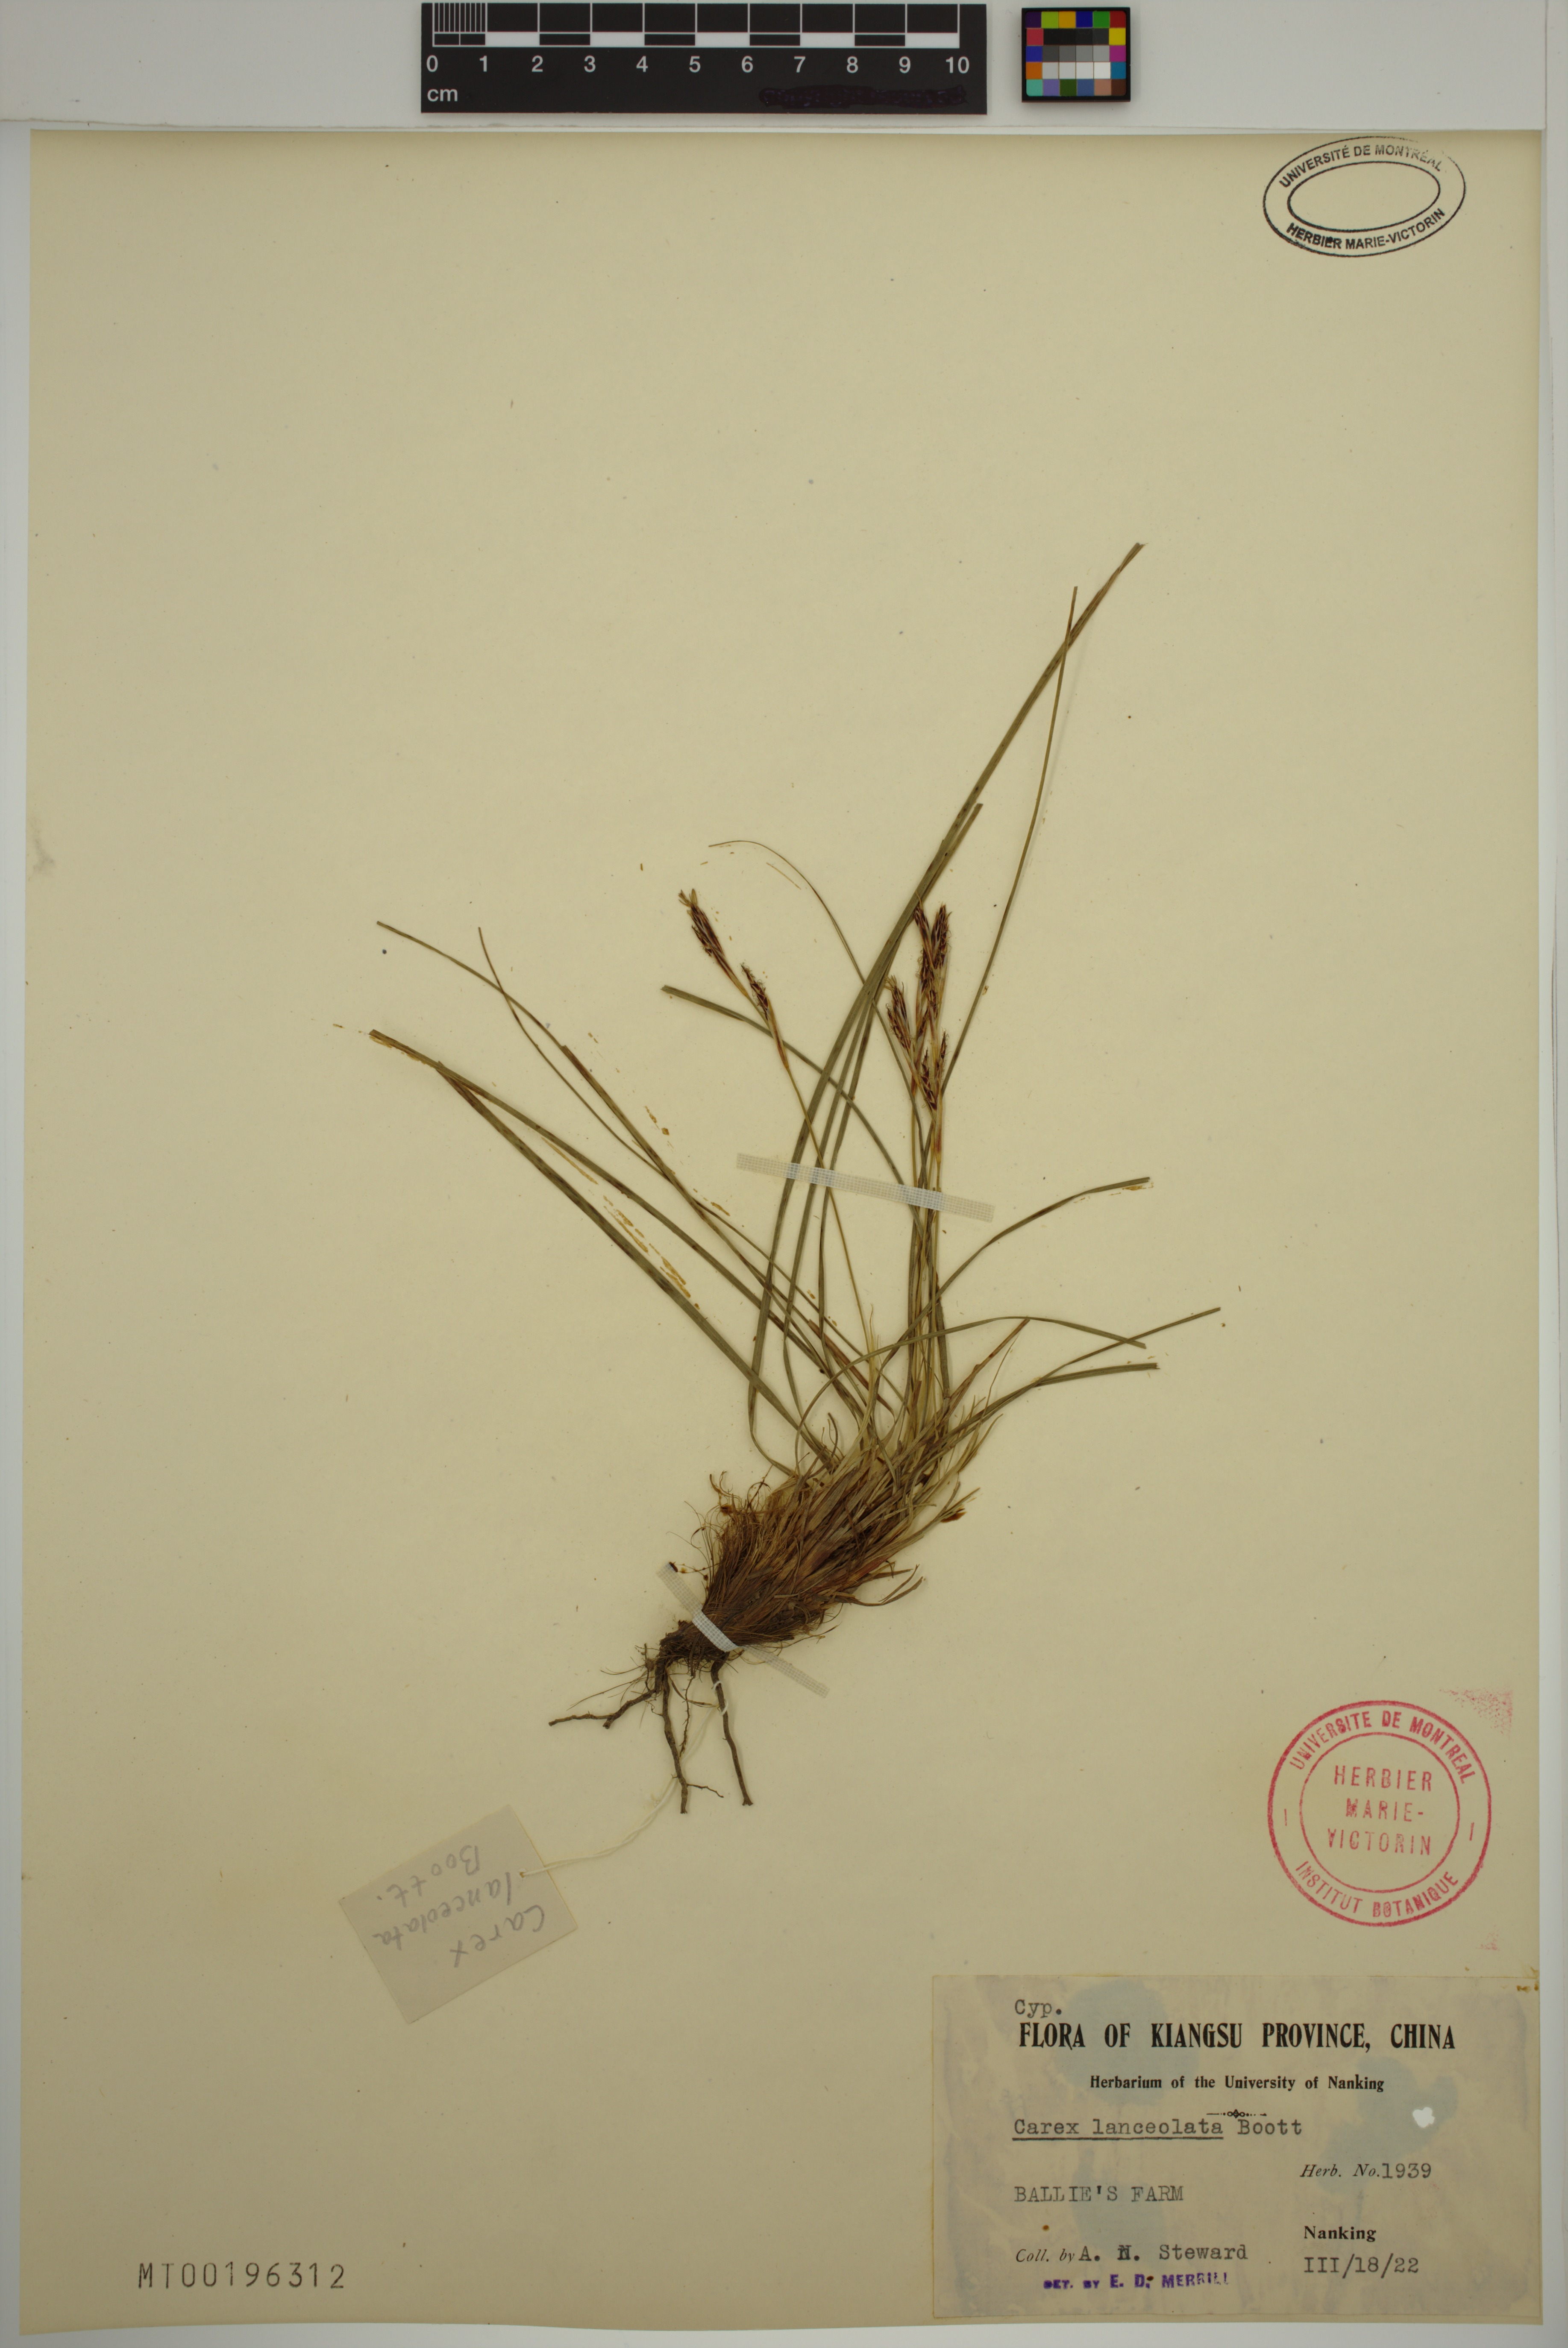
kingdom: Plantae
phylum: Tracheophyta
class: Liliopsida
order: Poales
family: Cyperaceae
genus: Carex
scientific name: Carex lanceolata
